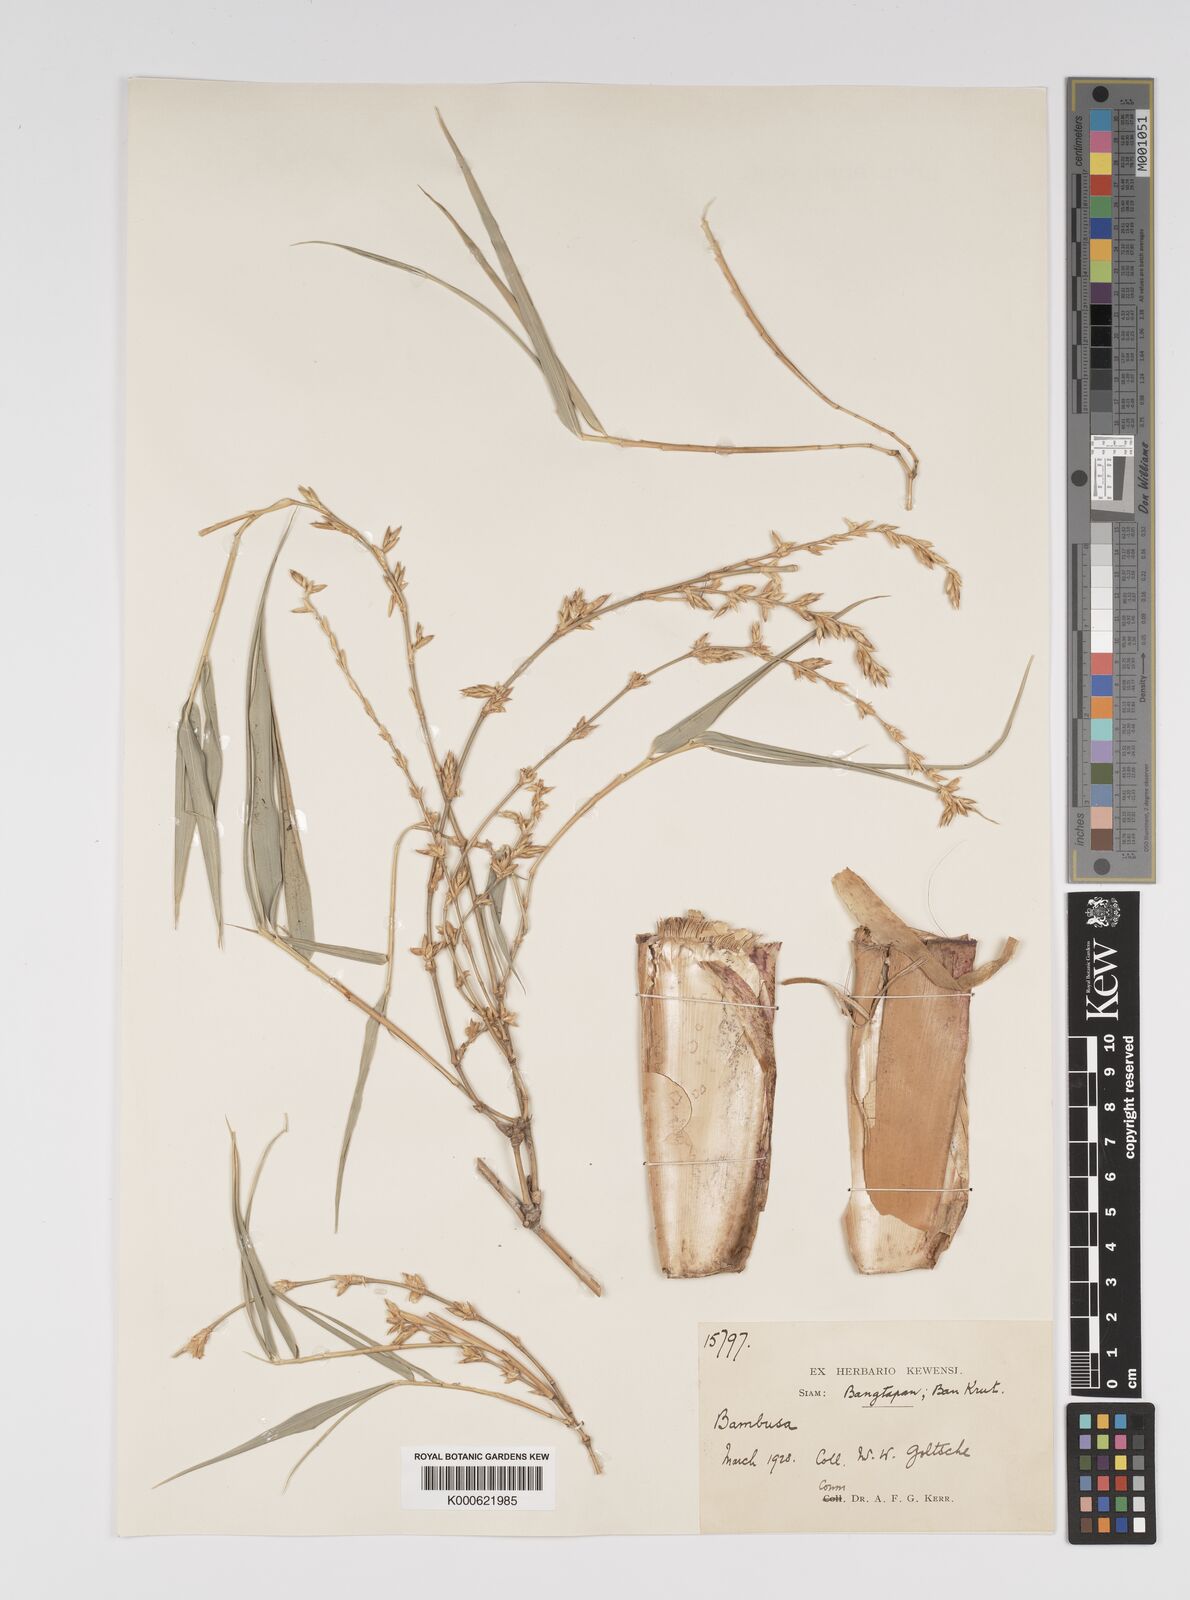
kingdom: Plantae
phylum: Tracheophyta
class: Liliopsida
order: Poales
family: Poaceae
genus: Bambusa
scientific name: Bambusa
